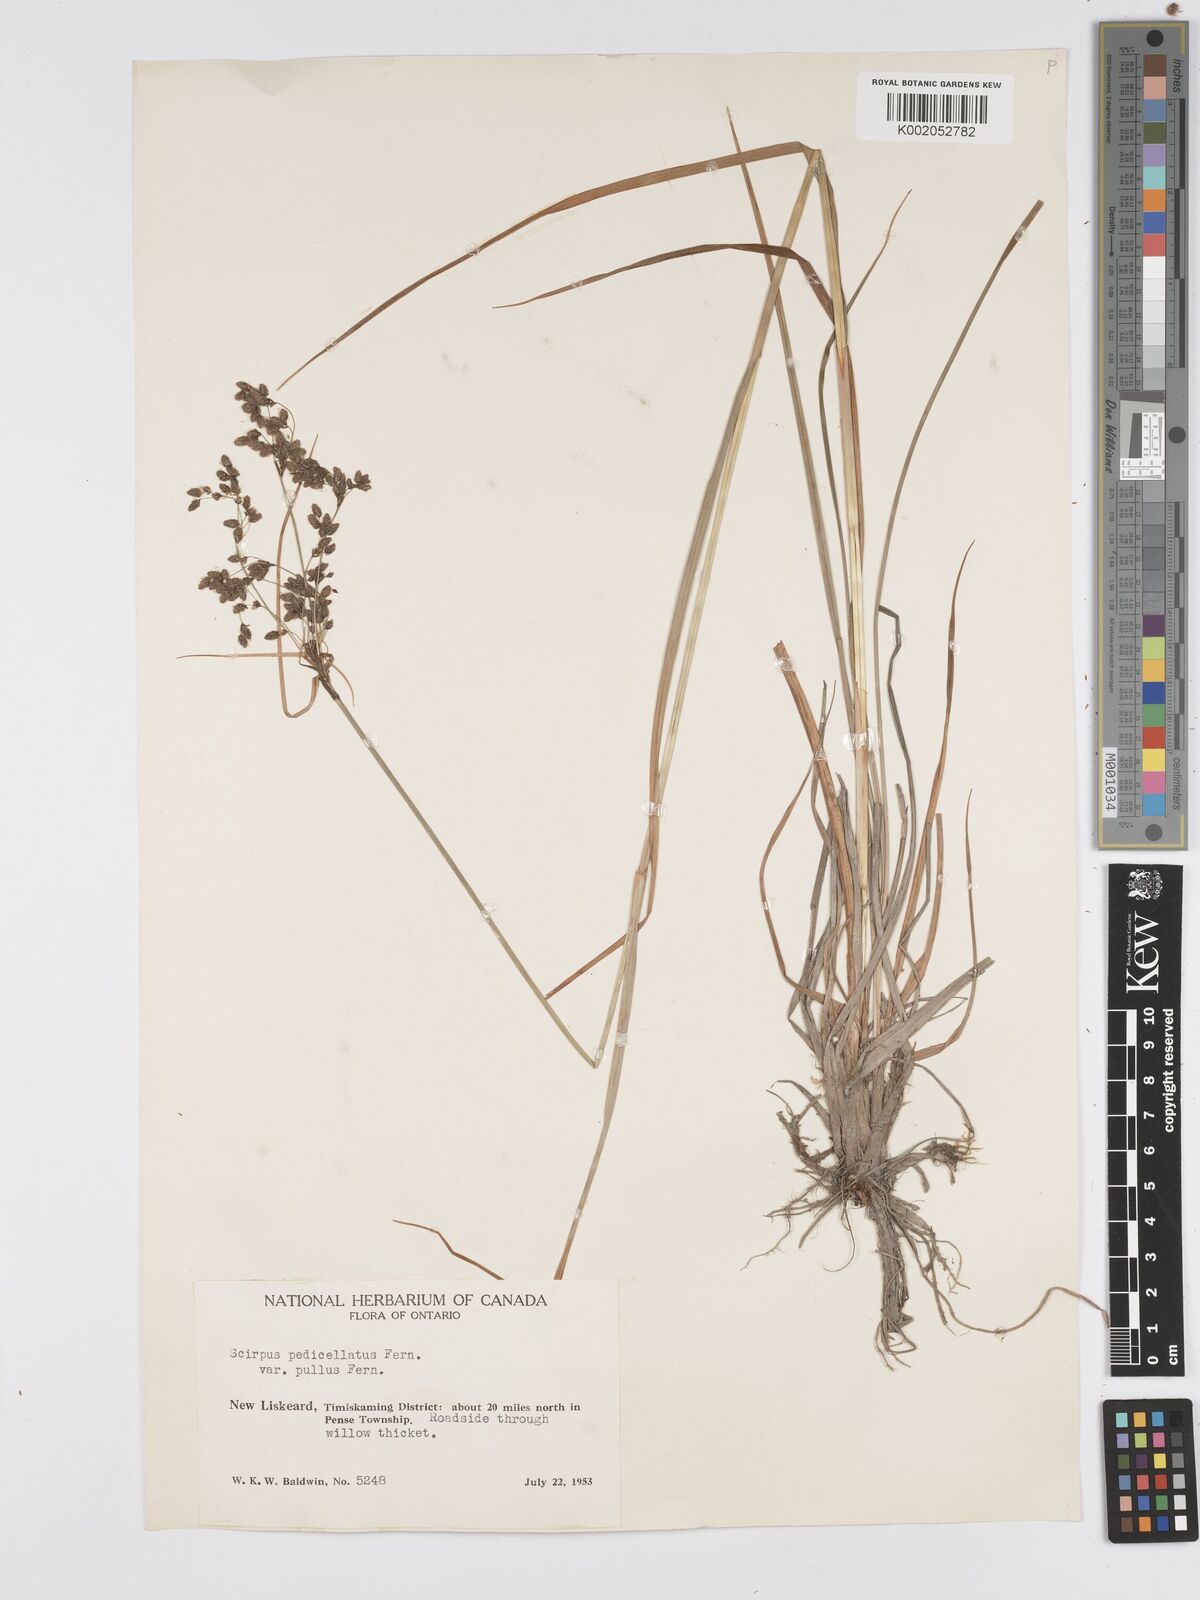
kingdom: Plantae
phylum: Tracheophyta
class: Liliopsida
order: Poales
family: Cyperaceae
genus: Scirpus
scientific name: Scirpus cyperinus
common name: Black-sheathed bulrush
